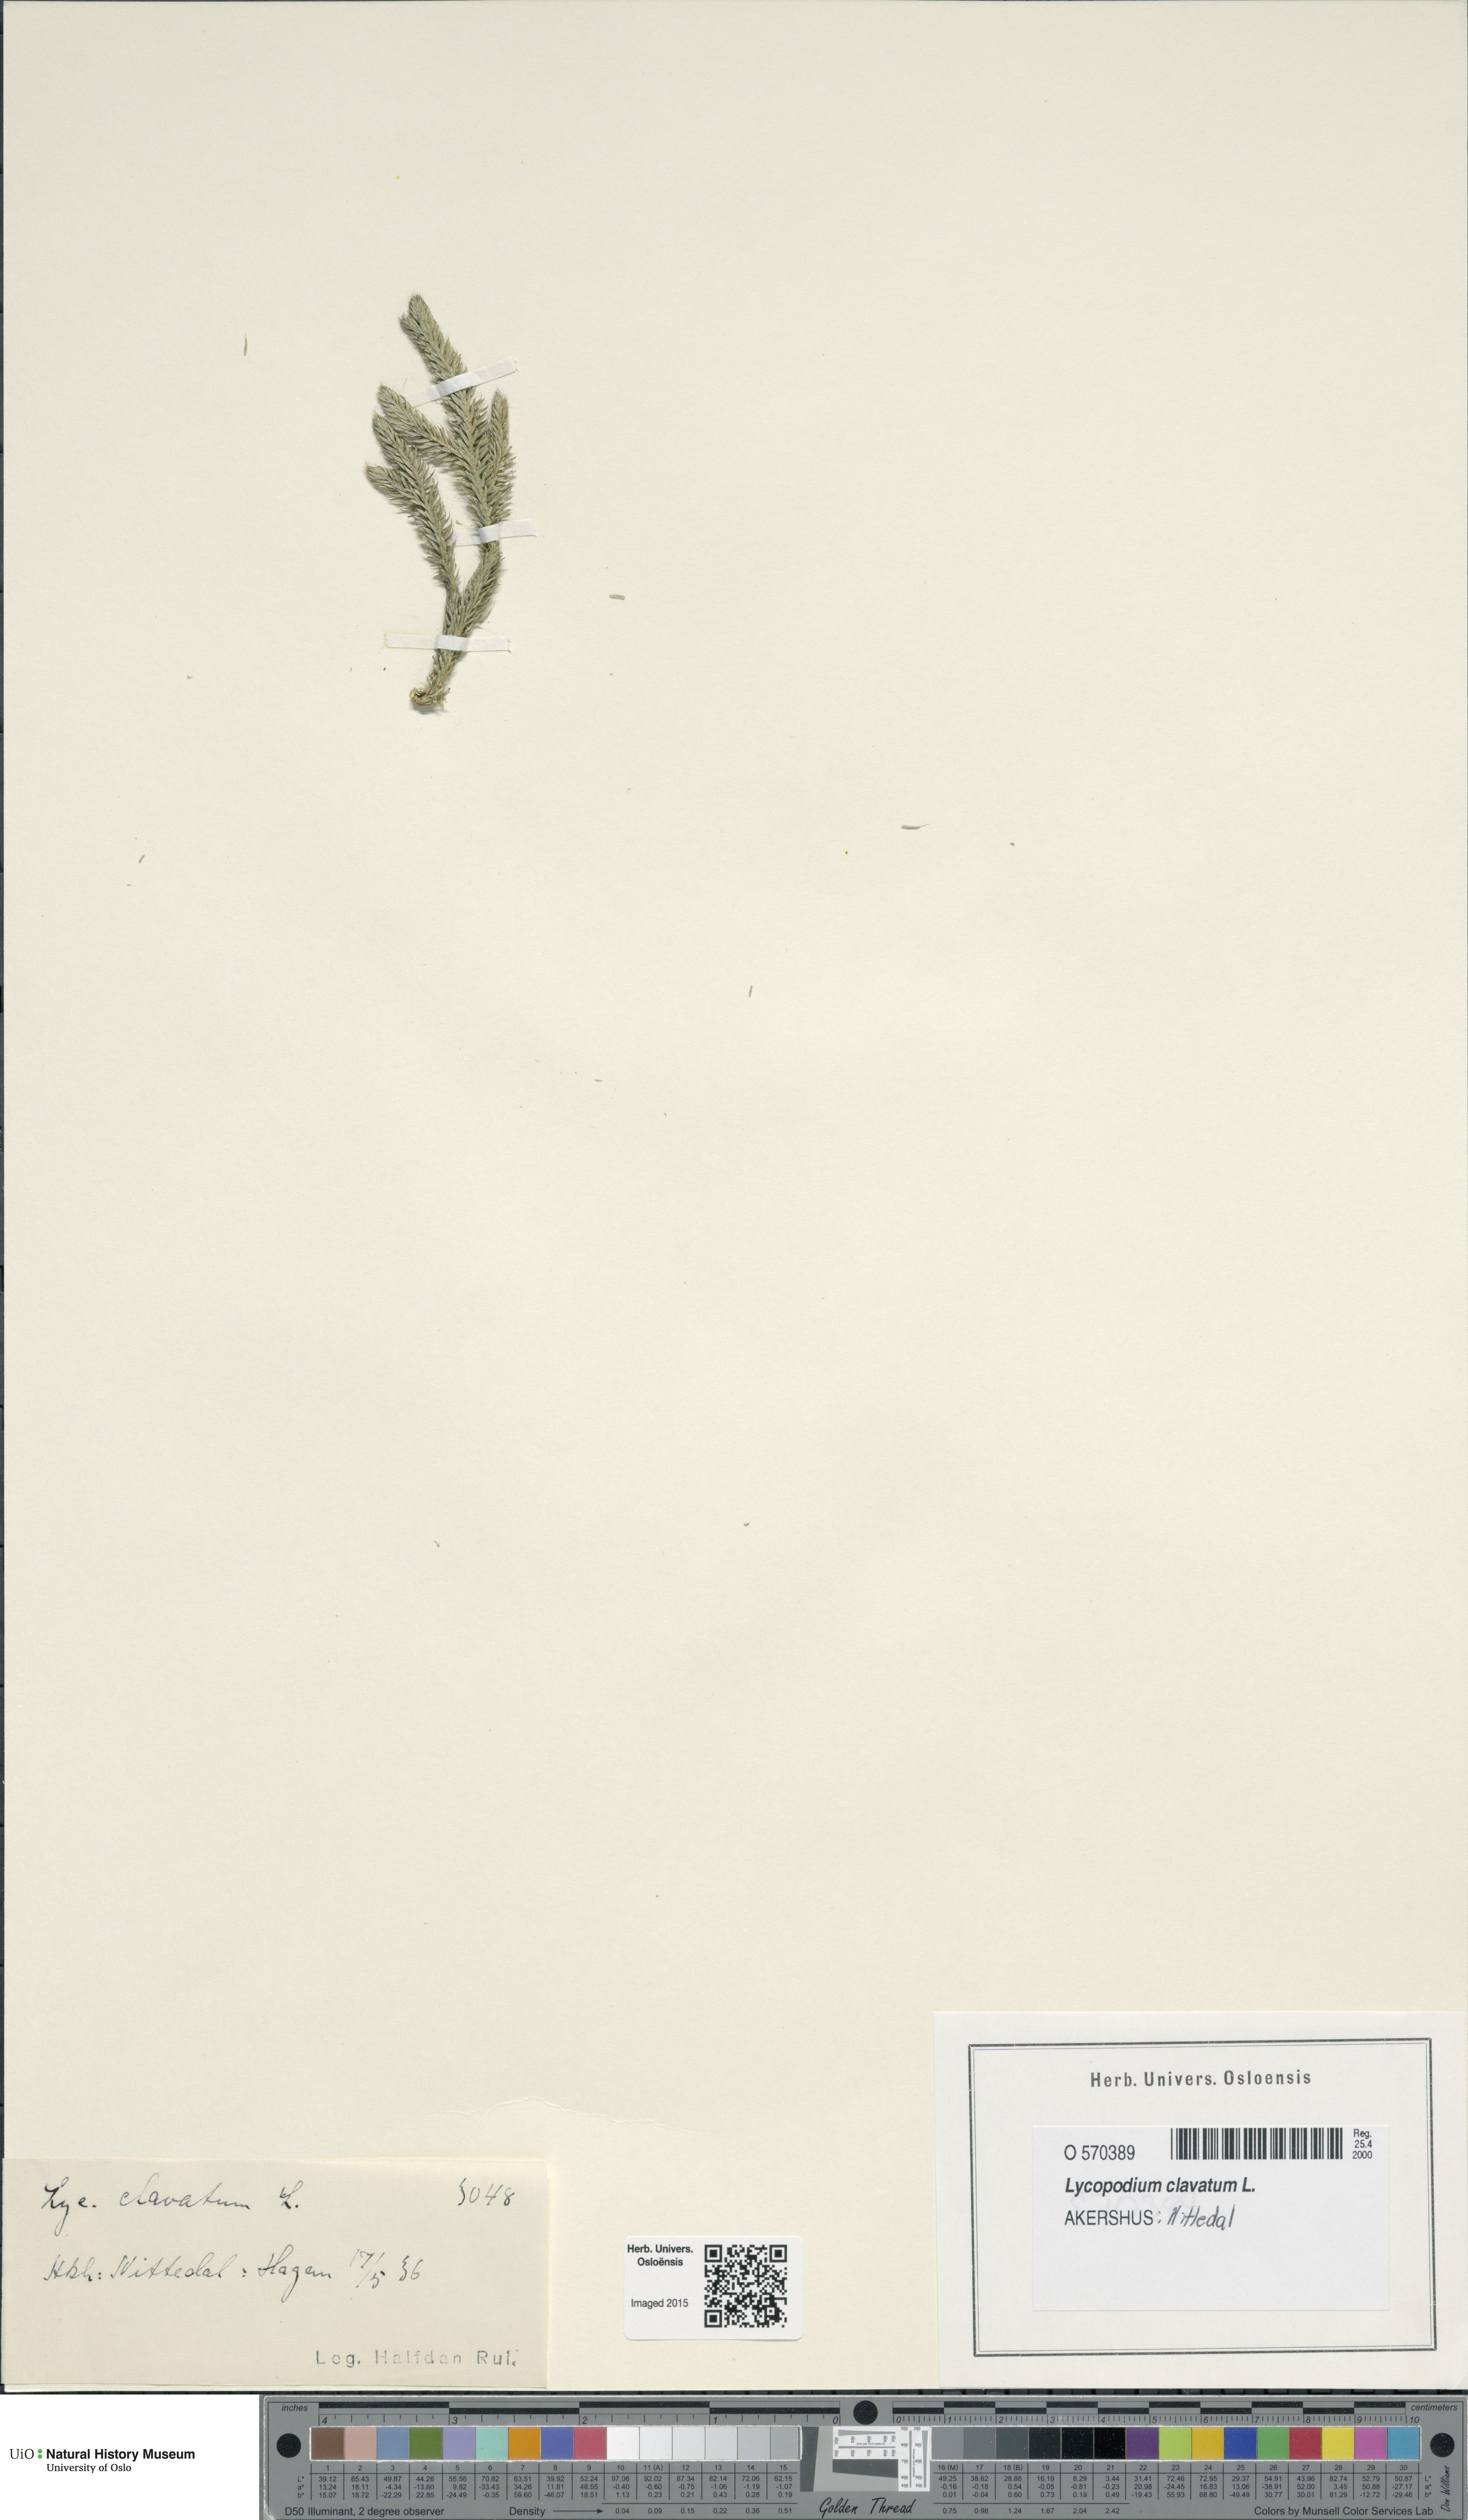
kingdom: Plantae
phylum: Tracheophyta
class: Lycopodiopsida
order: Lycopodiales
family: Lycopodiaceae
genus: Lycopodium
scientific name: Lycopodium clavatum
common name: Stag's-horn clubmoss
